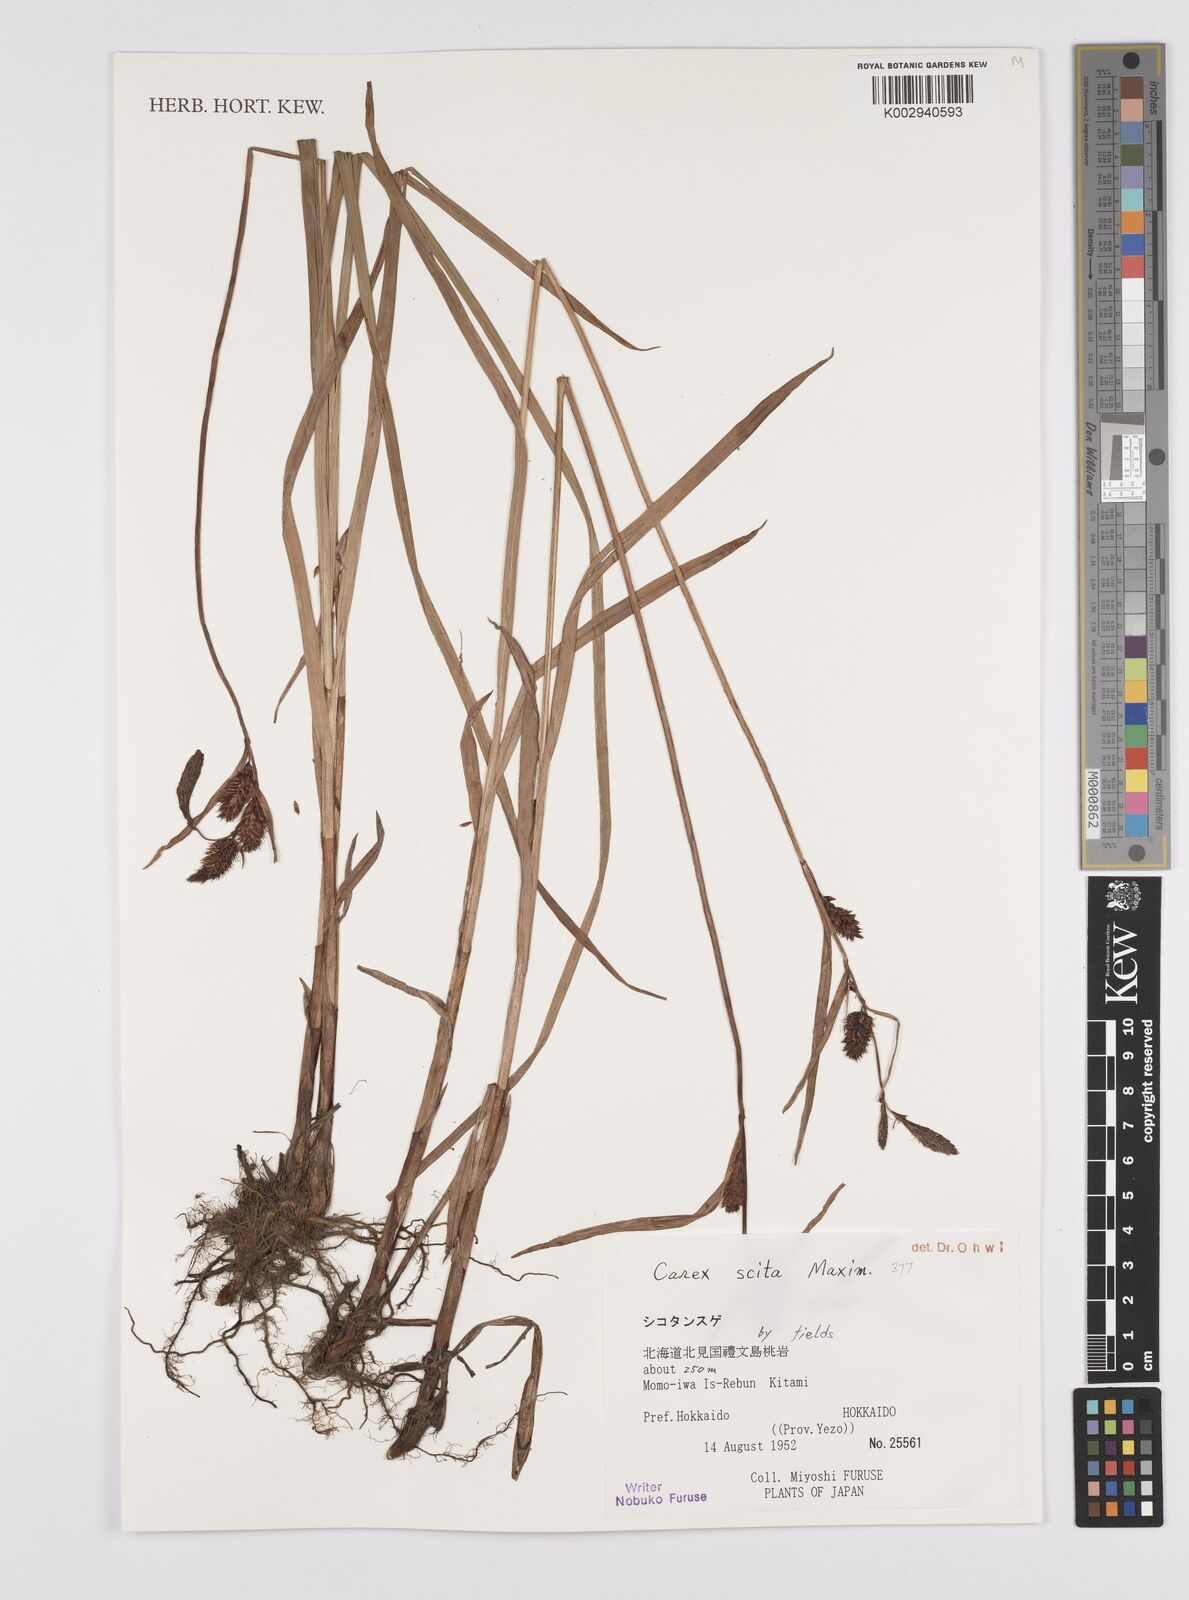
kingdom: Plantae
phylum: Tracheophyta
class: Liliopsida
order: Poales
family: Cyperaceae
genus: Carex
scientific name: Carex scita
